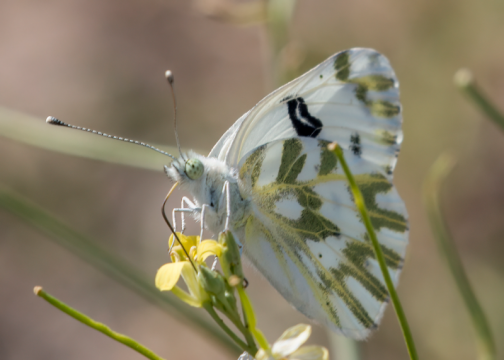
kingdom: Animalia
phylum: Arthropoda
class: Insecta
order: Lepidoptera
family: Pieridae
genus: Pontia
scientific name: Pontia beckerii
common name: Becker's White
